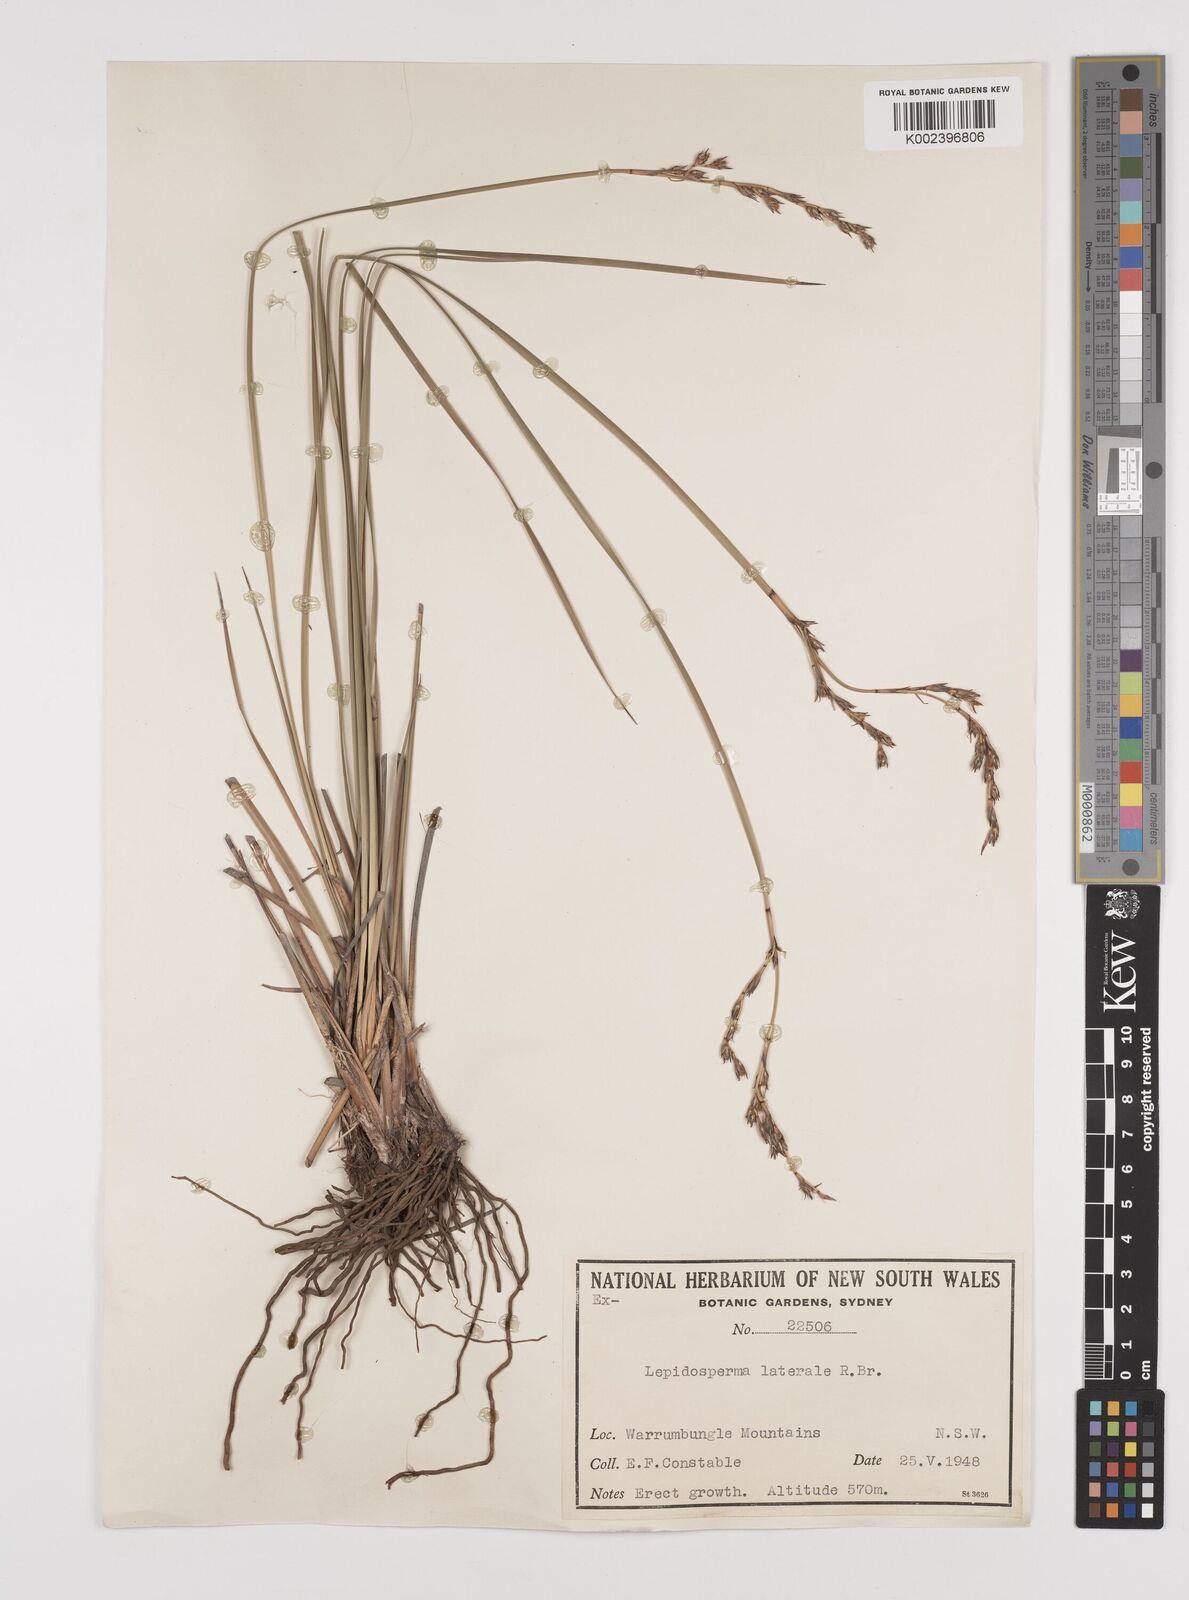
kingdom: Plantae
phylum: Tracheophyta
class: Liliopsida
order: Poales
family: Cyperaceae
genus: Lepidosperma
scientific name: Lepidosperma laterale
